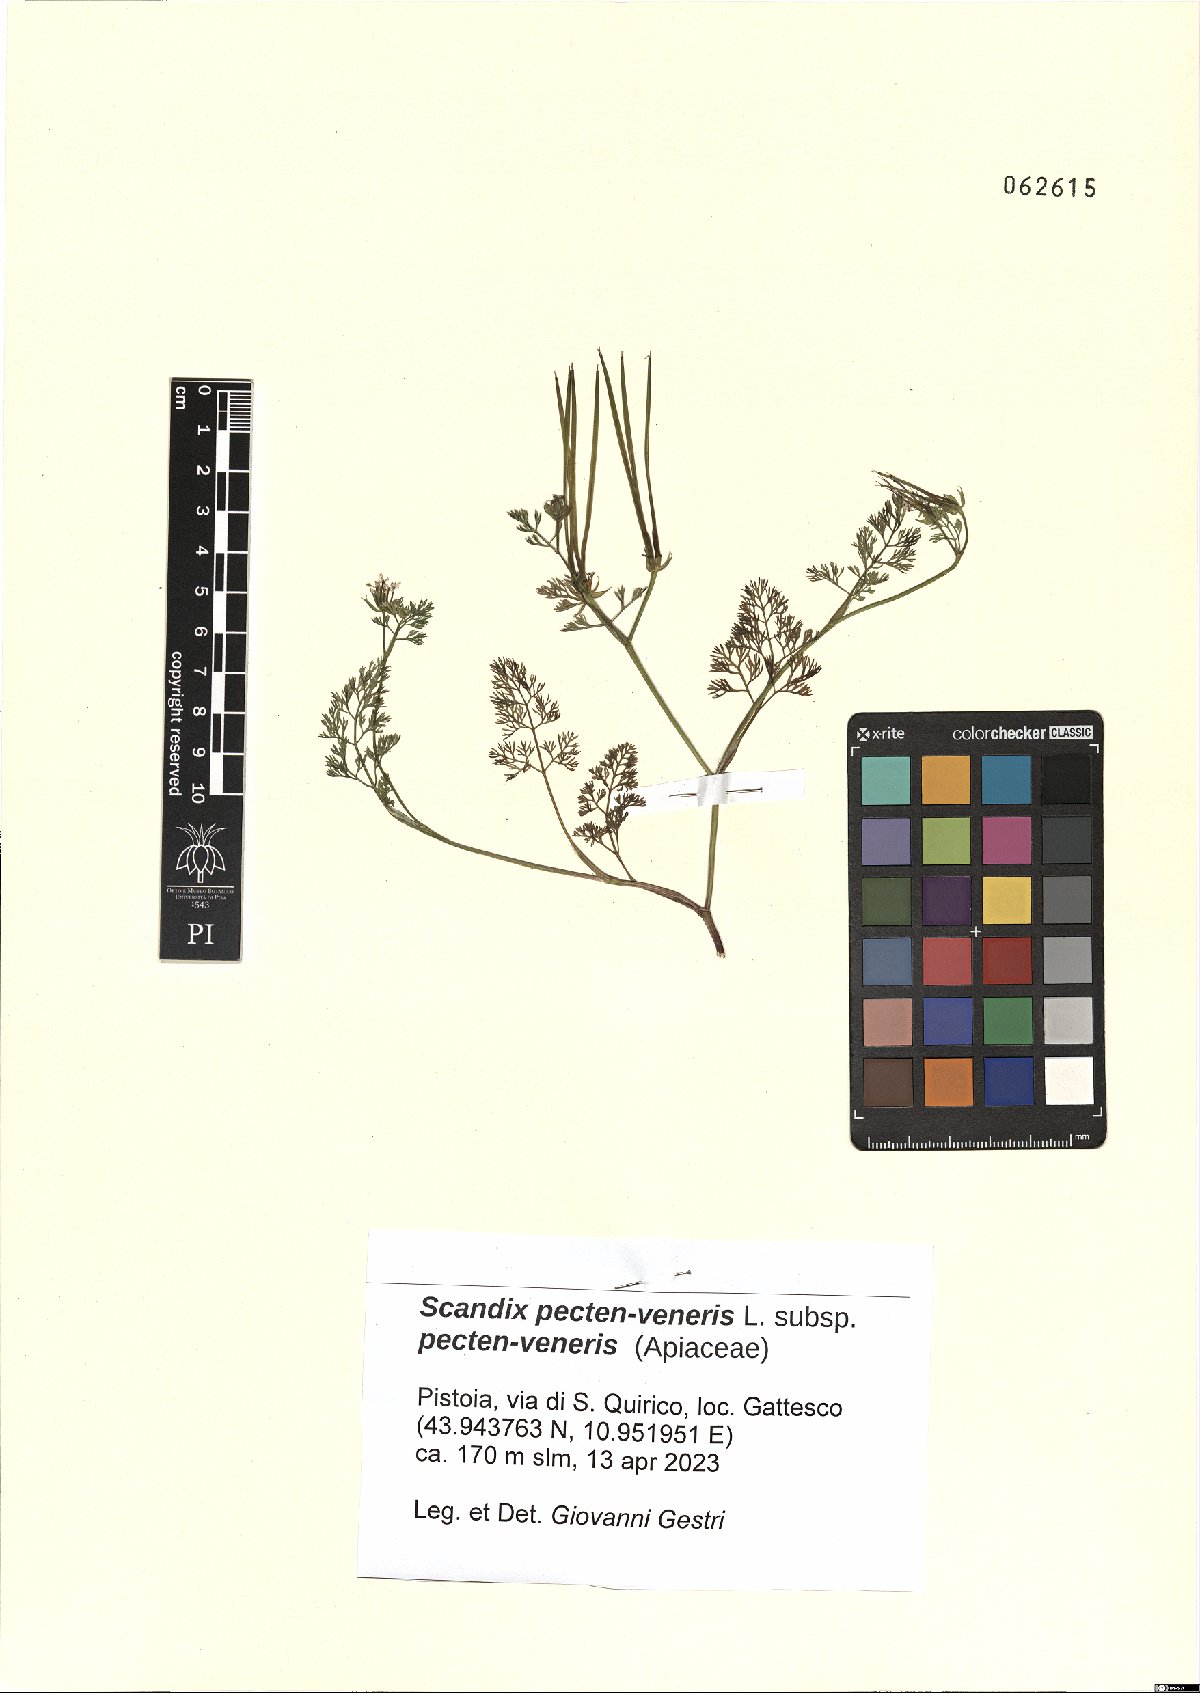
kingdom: Plantae
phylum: Tracheophyta
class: Magnoliopsida
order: Apiales
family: Apiaceae
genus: Scandix
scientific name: Scandix pecten-veneris
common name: Shepherd's-needle
